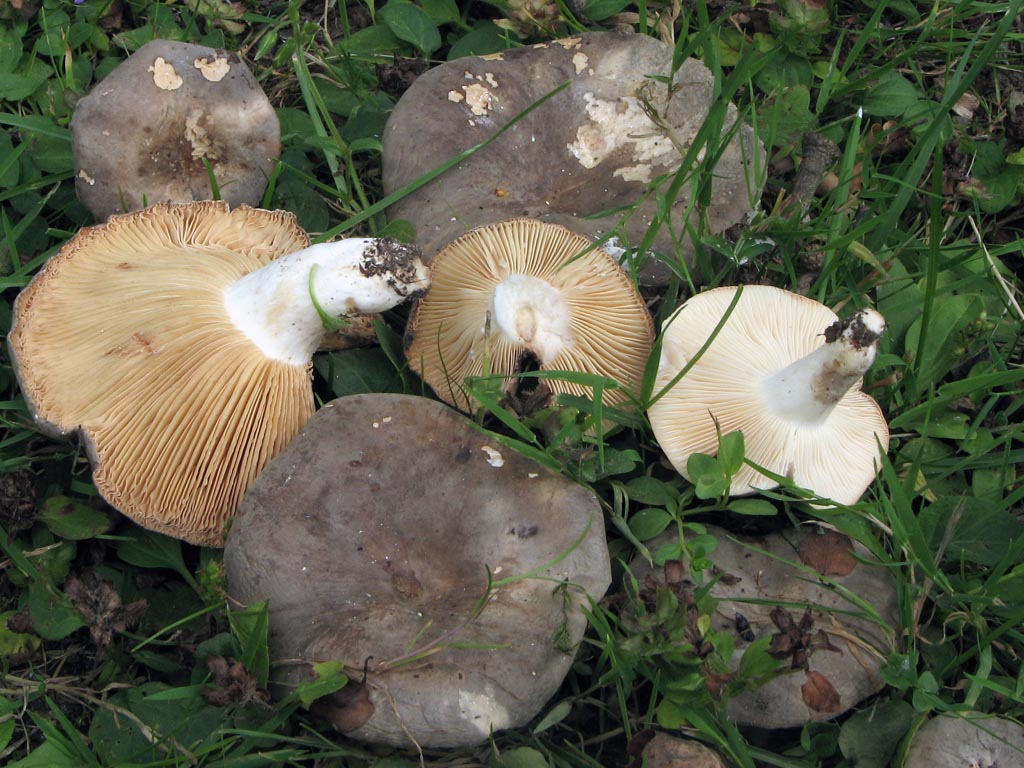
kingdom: Fungi
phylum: Basidiomycota
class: Agaricomycetes
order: Russulales
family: Russulaceae
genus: Lactarius
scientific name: Lactarius azonites
